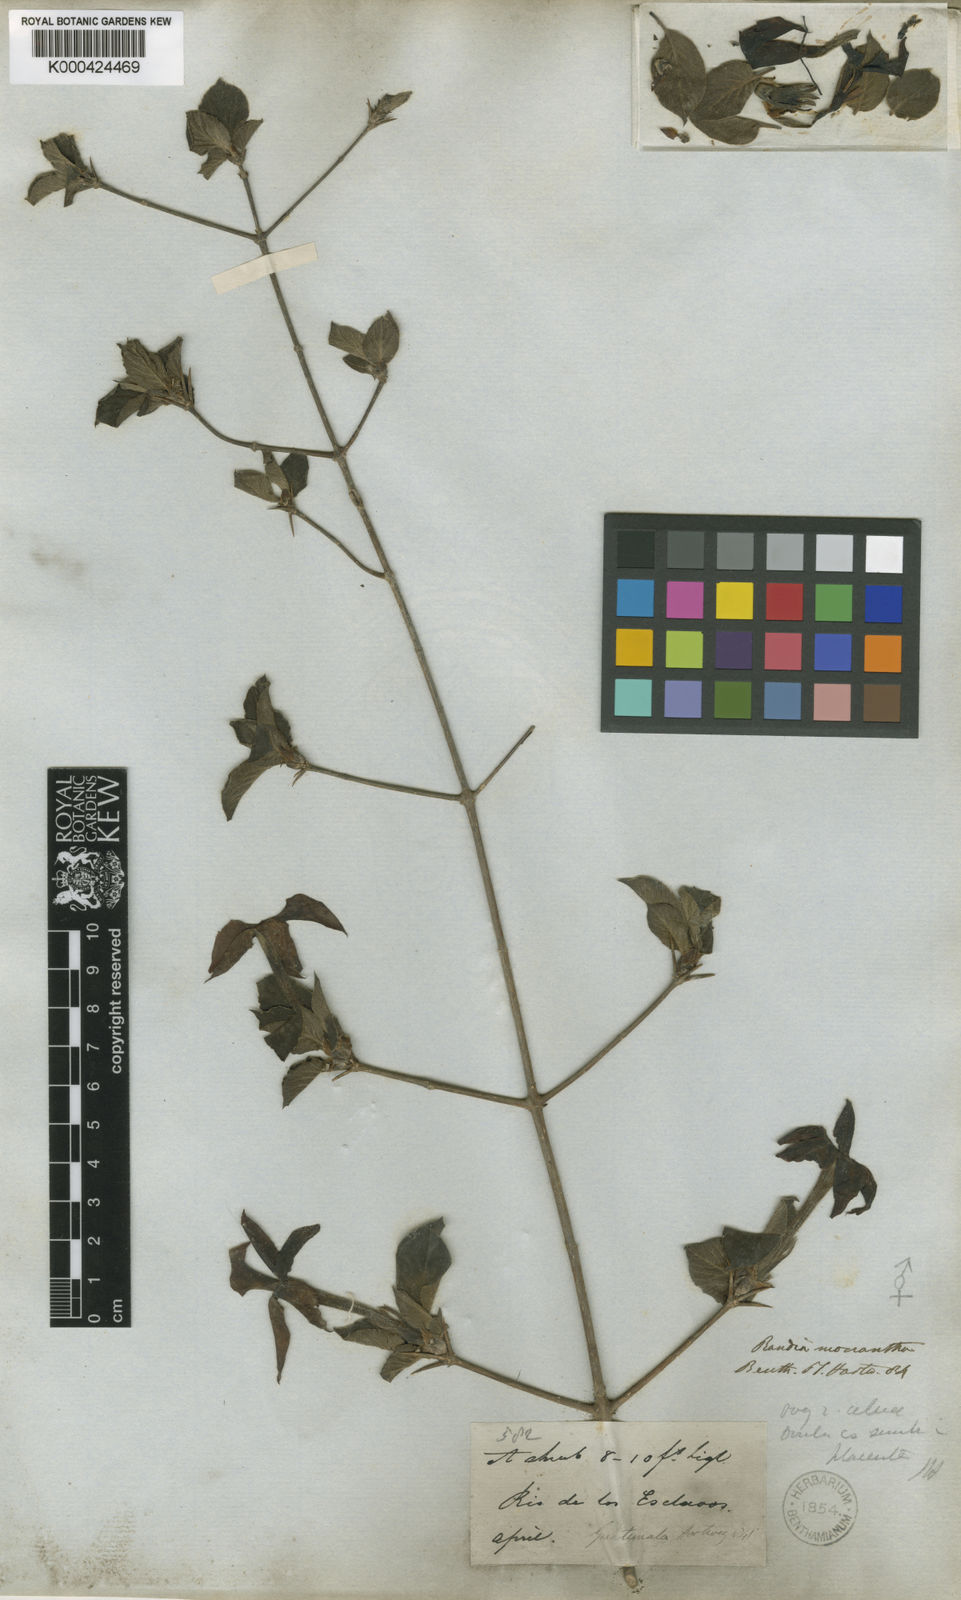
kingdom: Plantae
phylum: Tracheophyta
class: Magnoliopsida
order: Gentianales
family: Rubiaceae
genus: Randia
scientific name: Randia monantha
